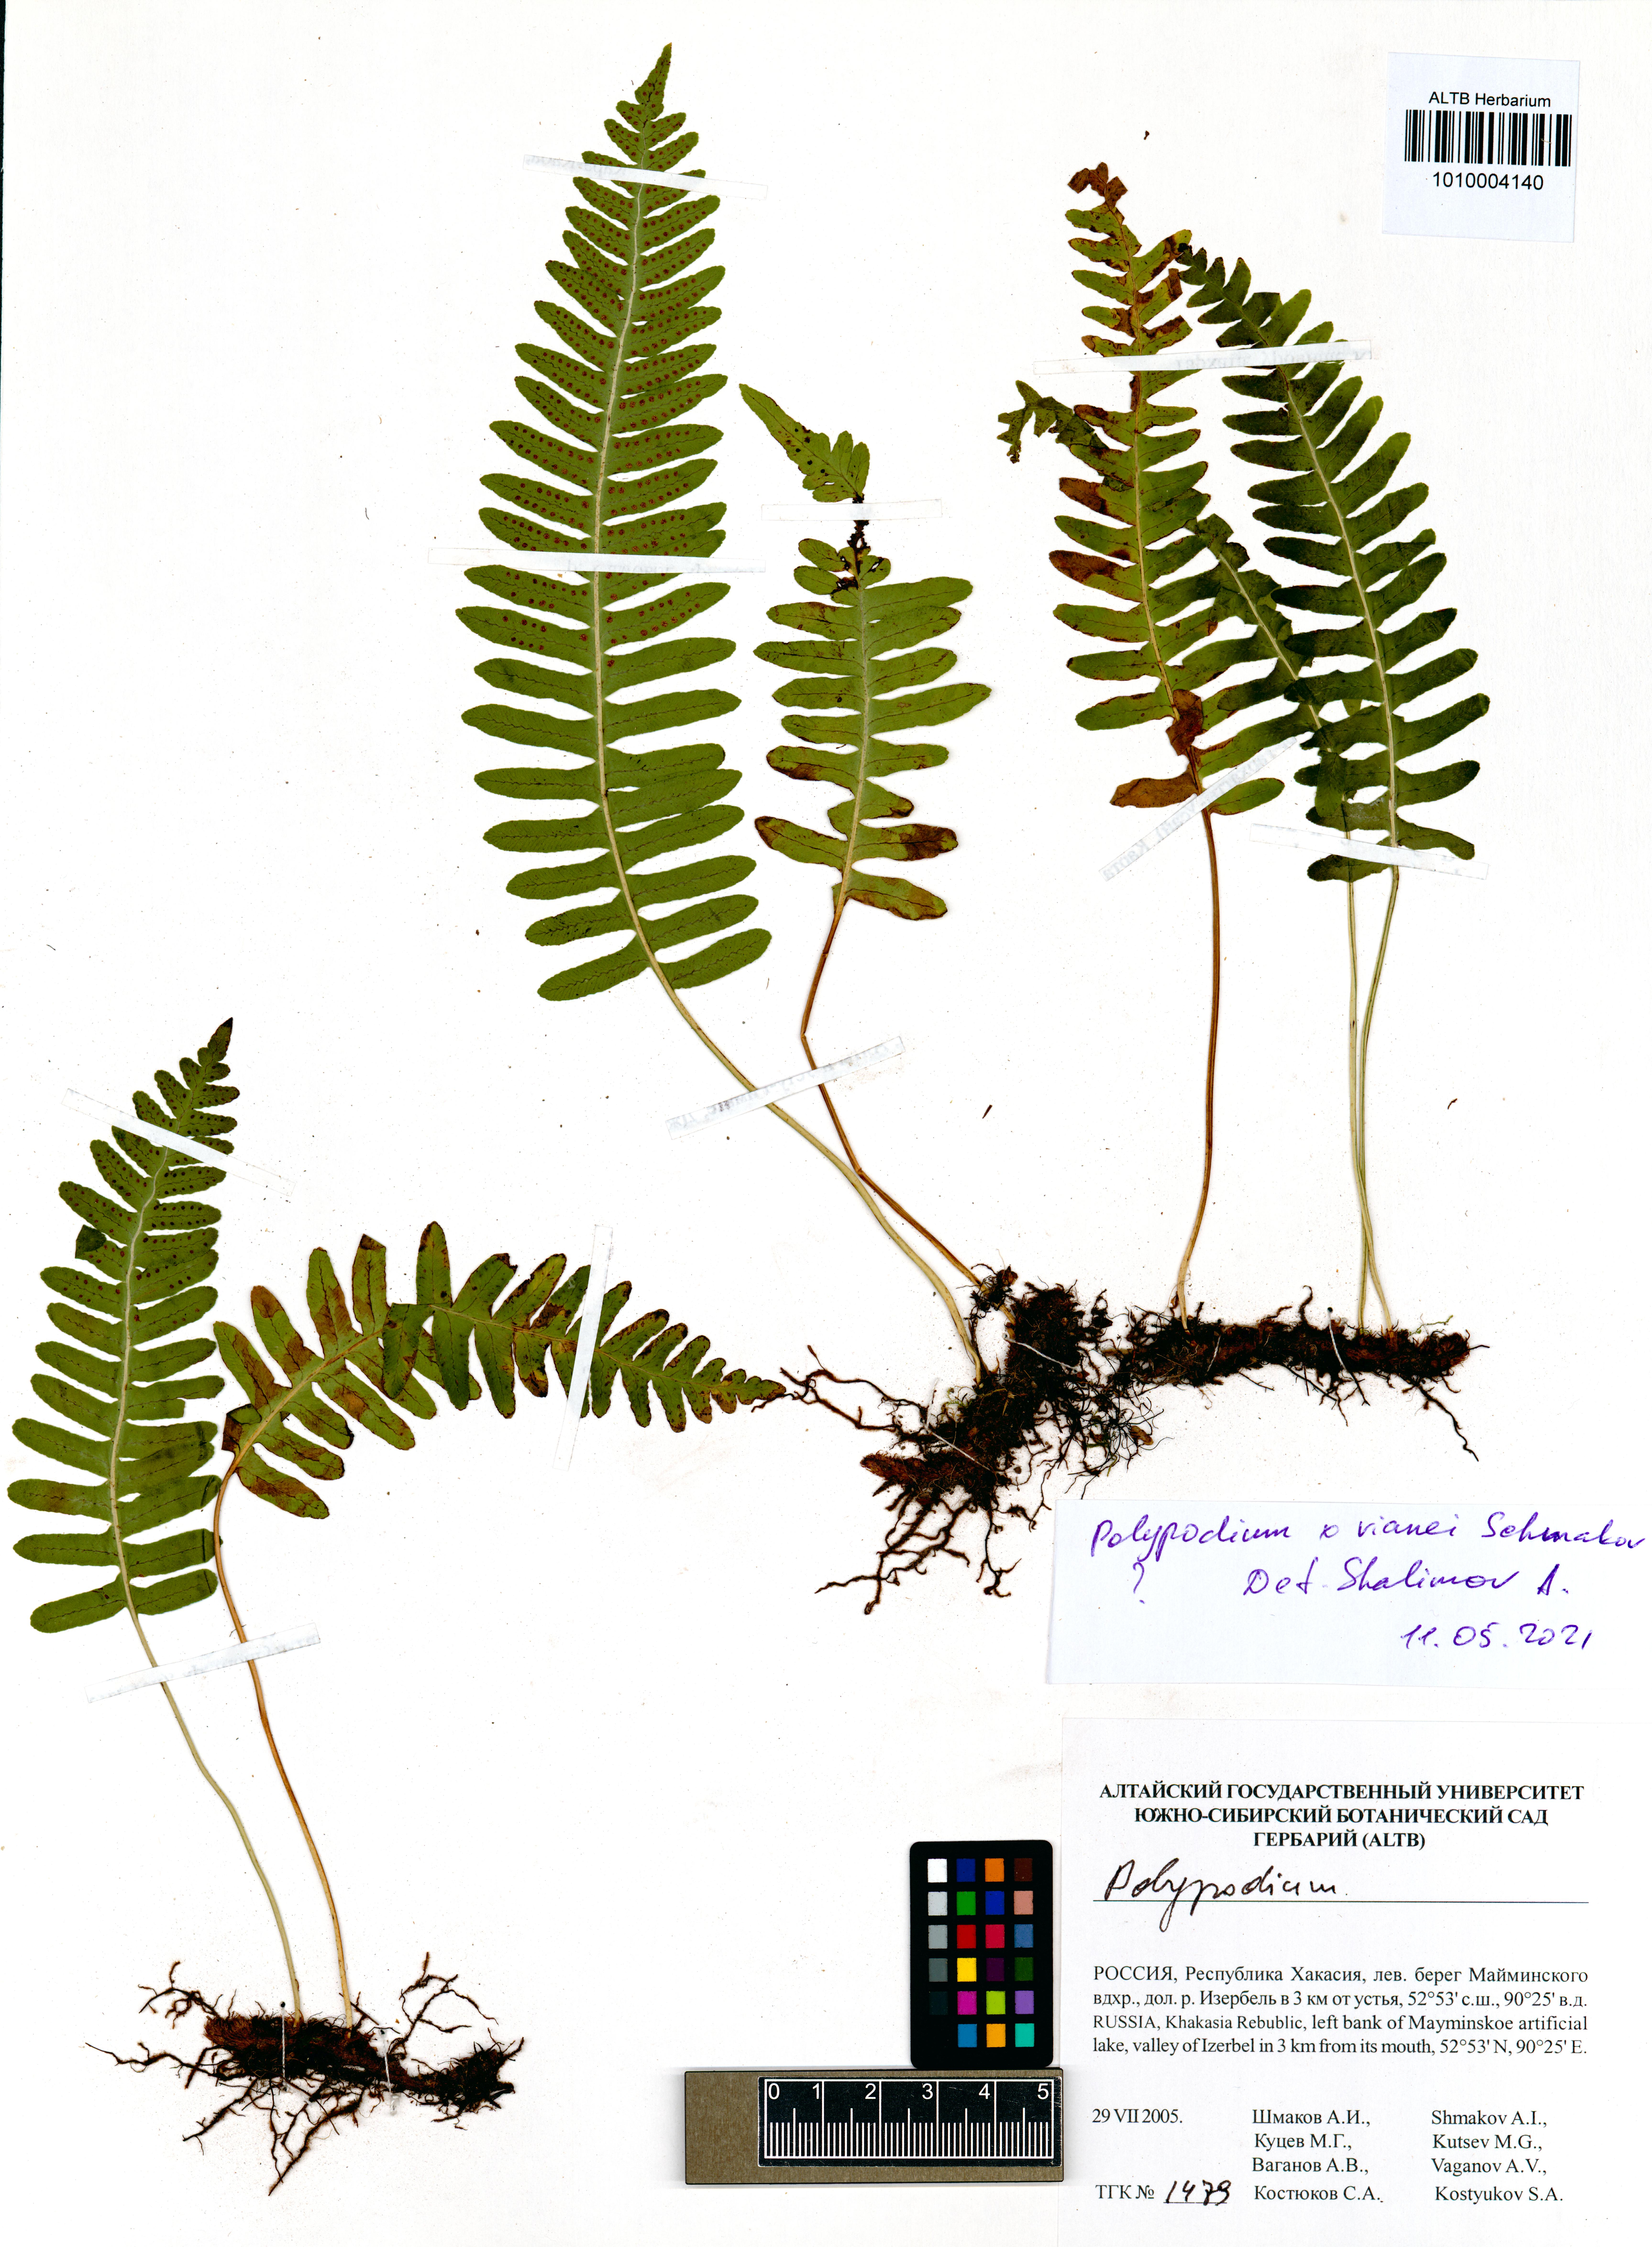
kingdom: Plantae
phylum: Tracheophyta
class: Polypodiopsida
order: Polypodiales
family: Polypodiaceae
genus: Polypodium
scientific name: Polypodium vianei
